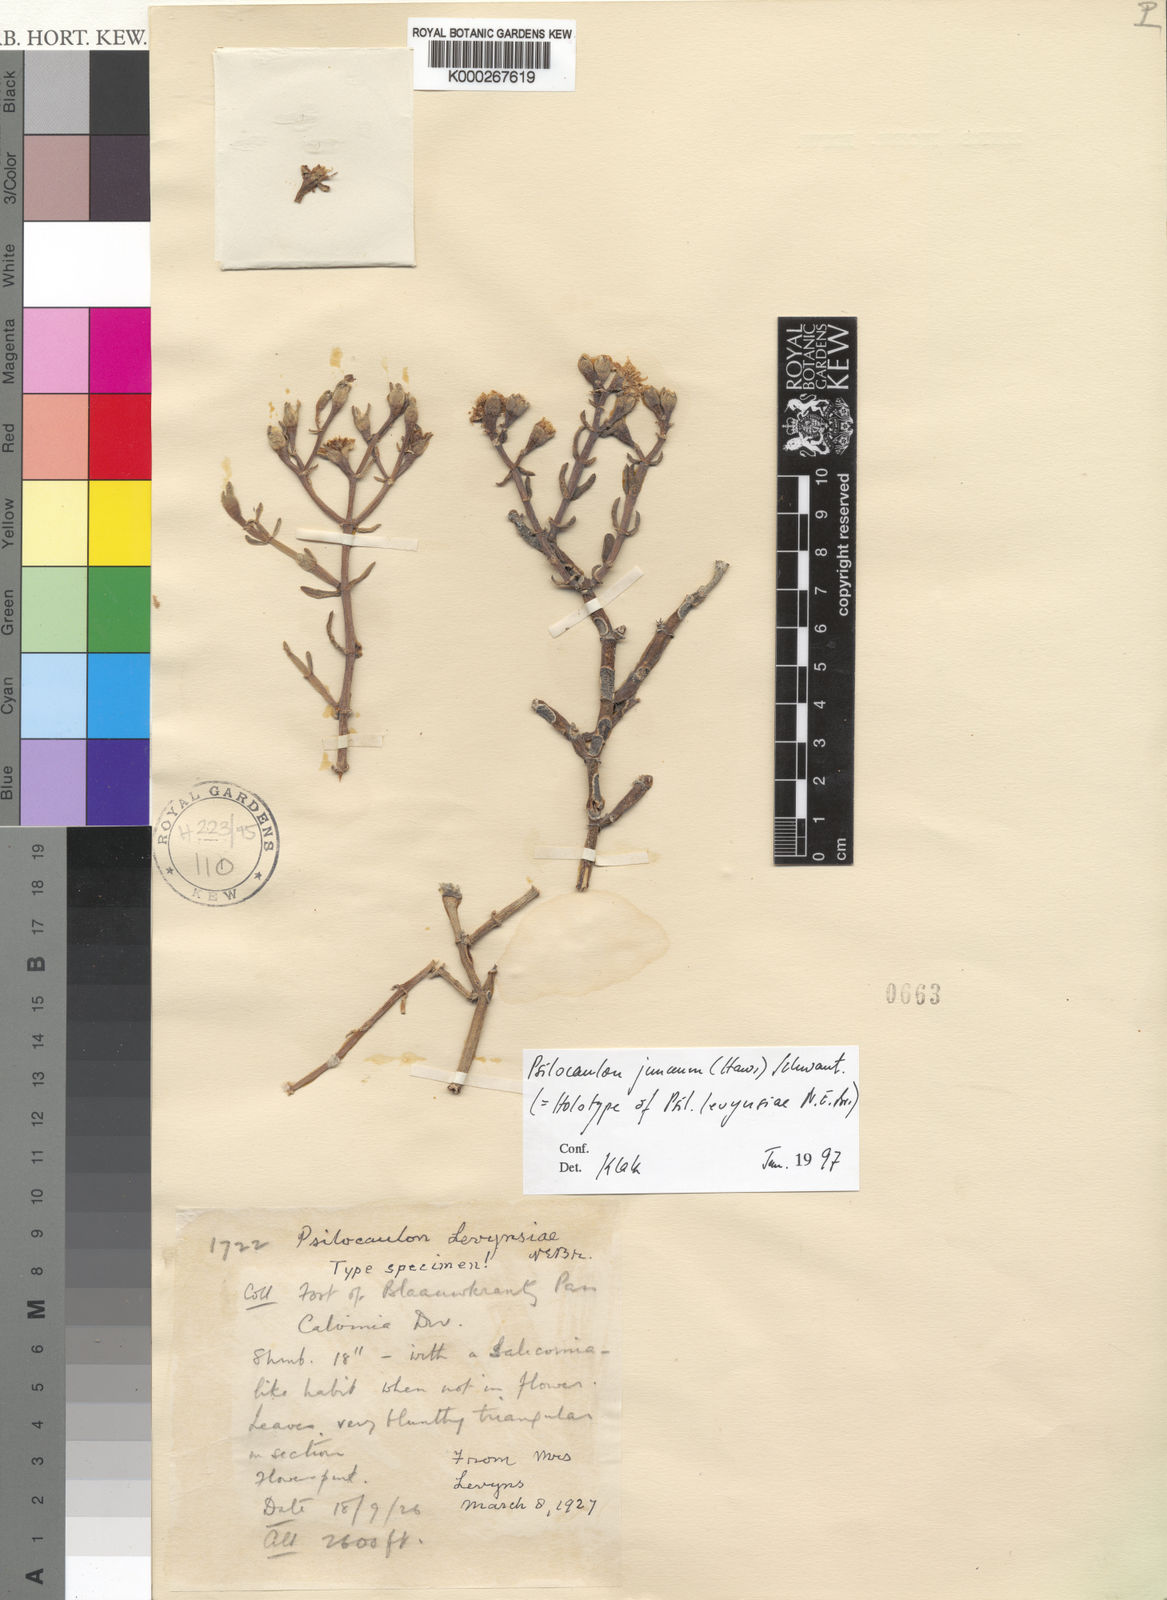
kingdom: Plantae
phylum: Tracheophyta
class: Magnoliopsida
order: Caryophyllales
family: Aizoaceae
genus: Mesembryanthemum
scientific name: Mesembryanthemum junceum
